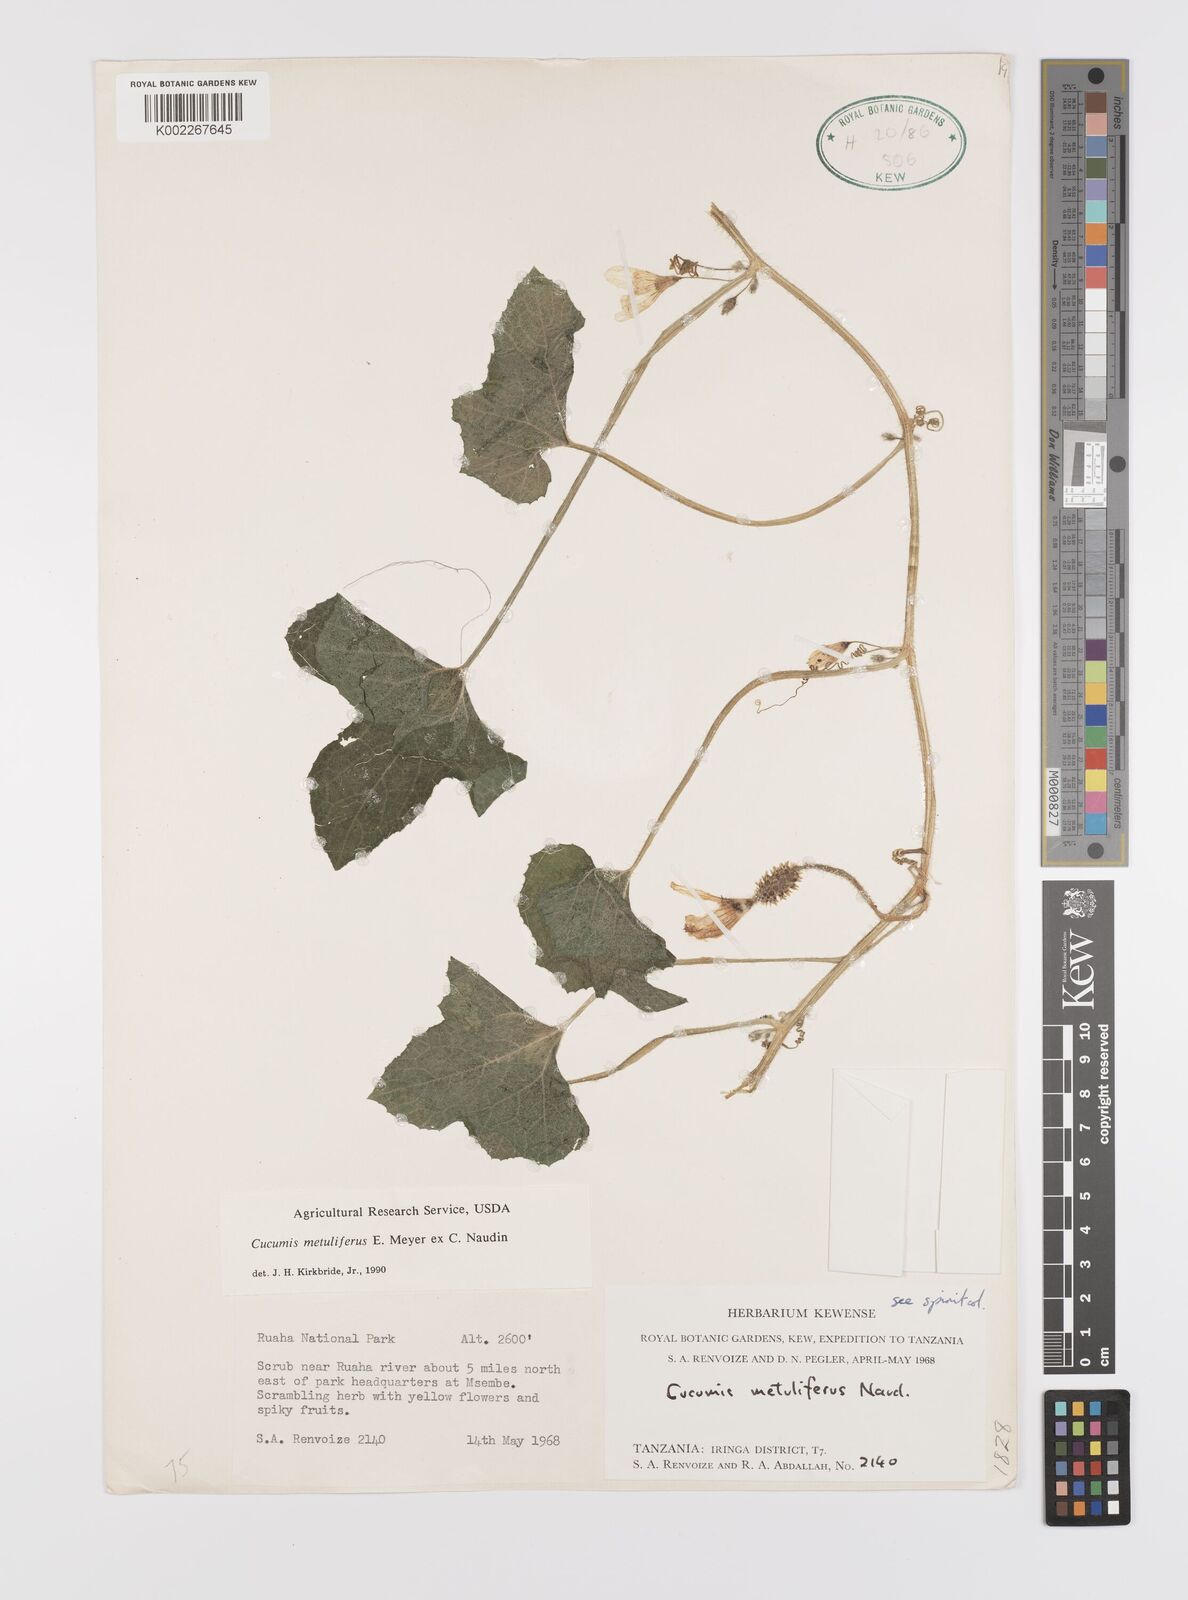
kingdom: Plantae
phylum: Tracheophyta
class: Magnoliopsida
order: Cucurbitales
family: Cucurbitaceae
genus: Cucumis
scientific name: Cucumis metuliferus
